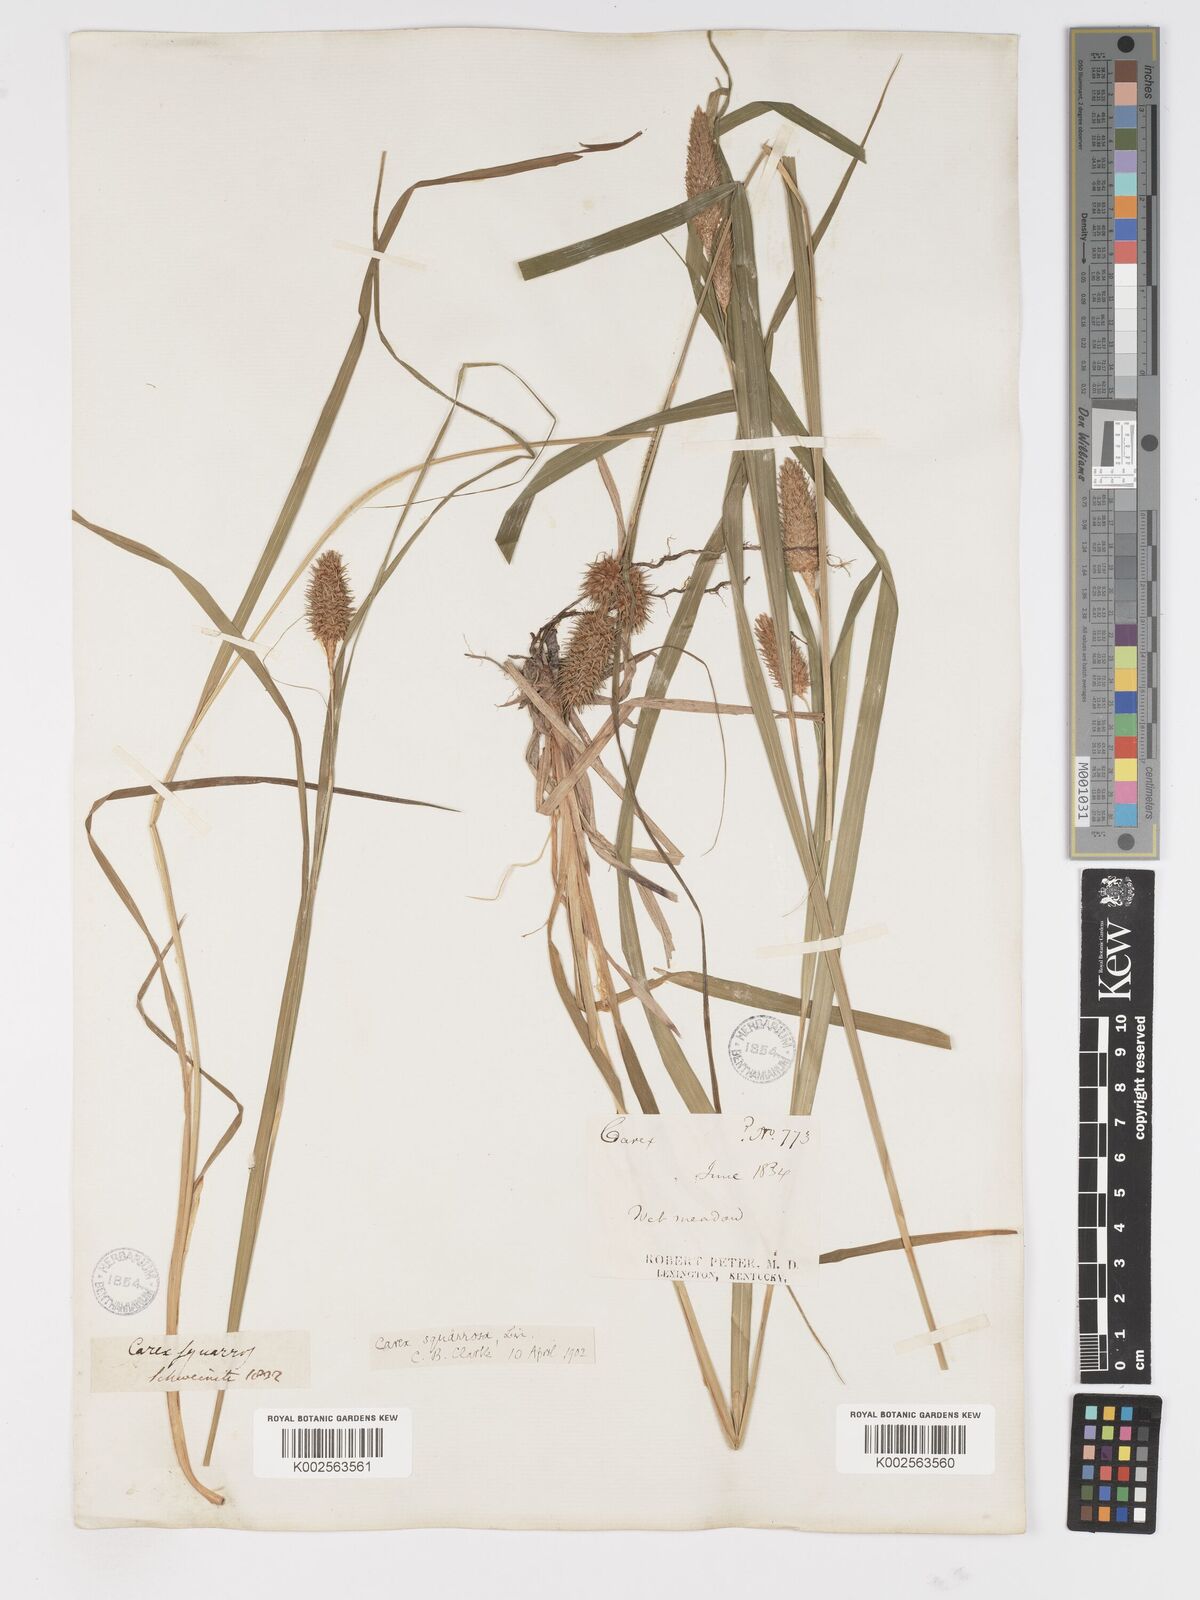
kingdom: Plantae
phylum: Tracheophyta
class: Liliopsida
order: Poales
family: Cyperaceae
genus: Carex
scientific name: Carex squarrosa
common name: Narrow-leaved cattail sedge
